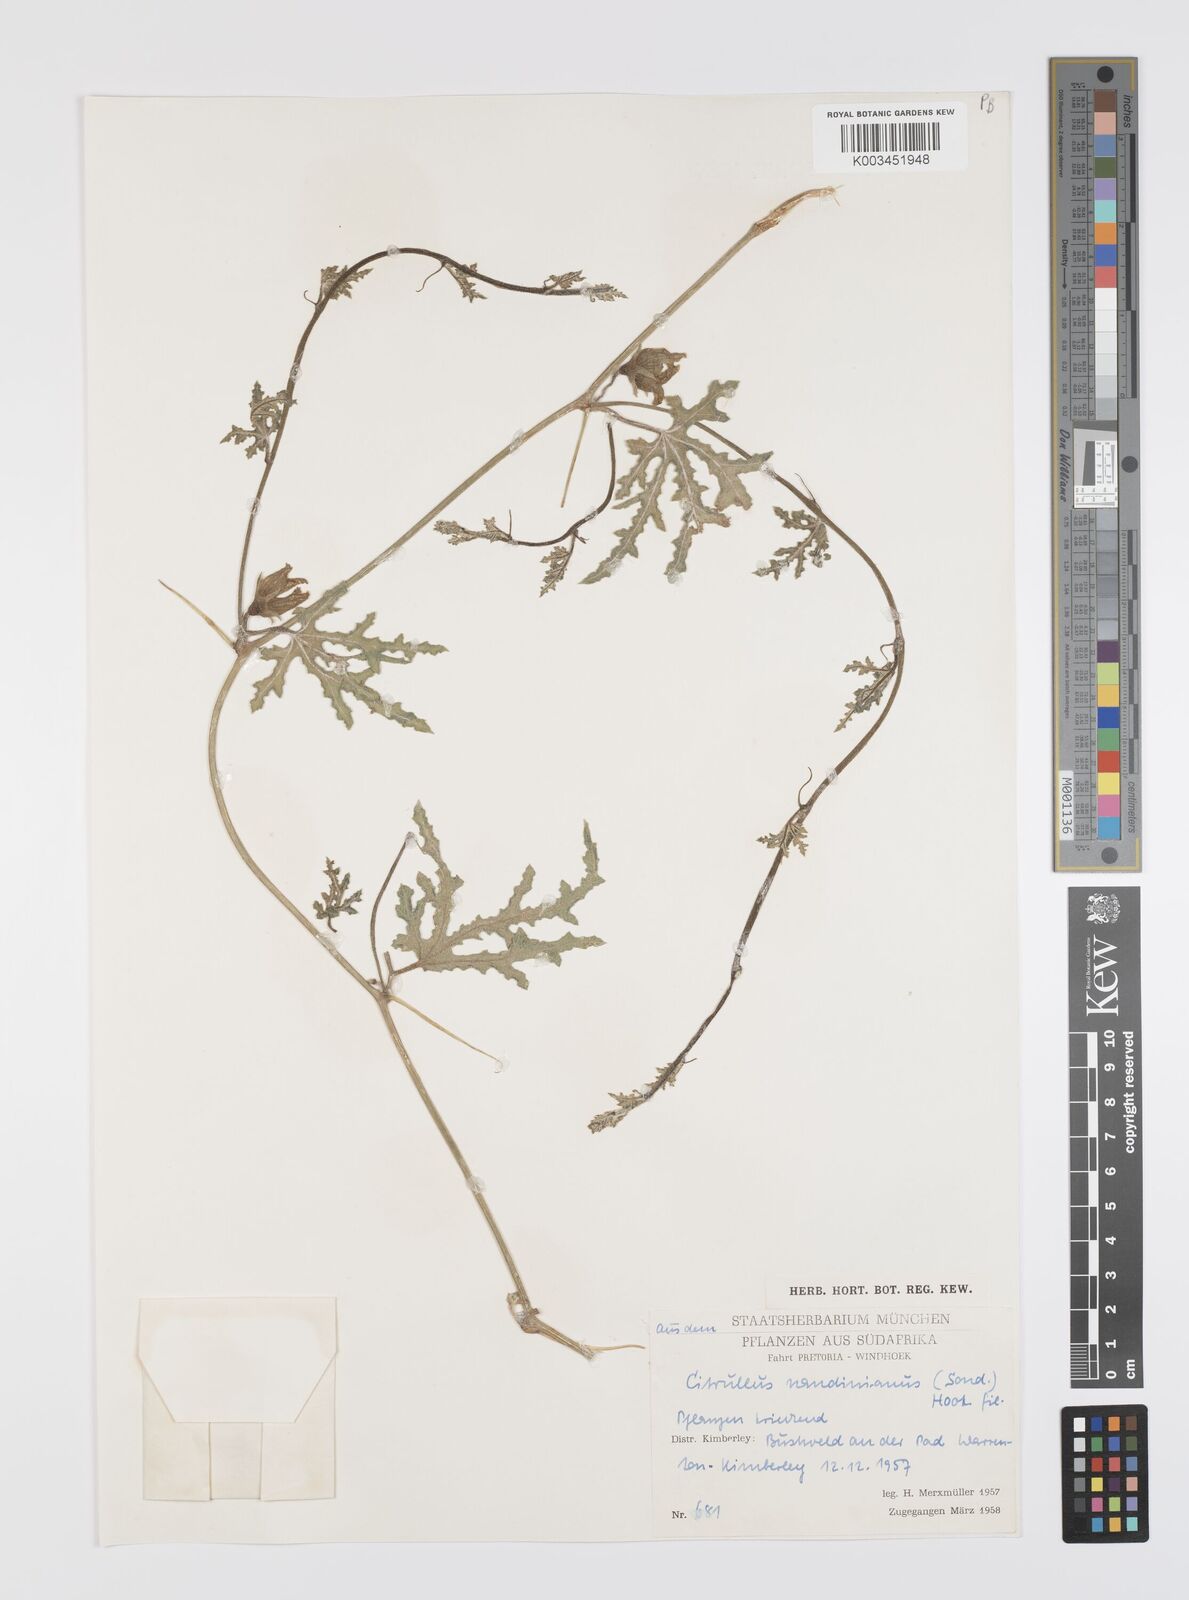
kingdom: Plantae
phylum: Tracheophyta
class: Magnoliopsida
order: Cucurbitales
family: Cucurbitaceae
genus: Citrullus
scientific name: Citrullus naudinianus
